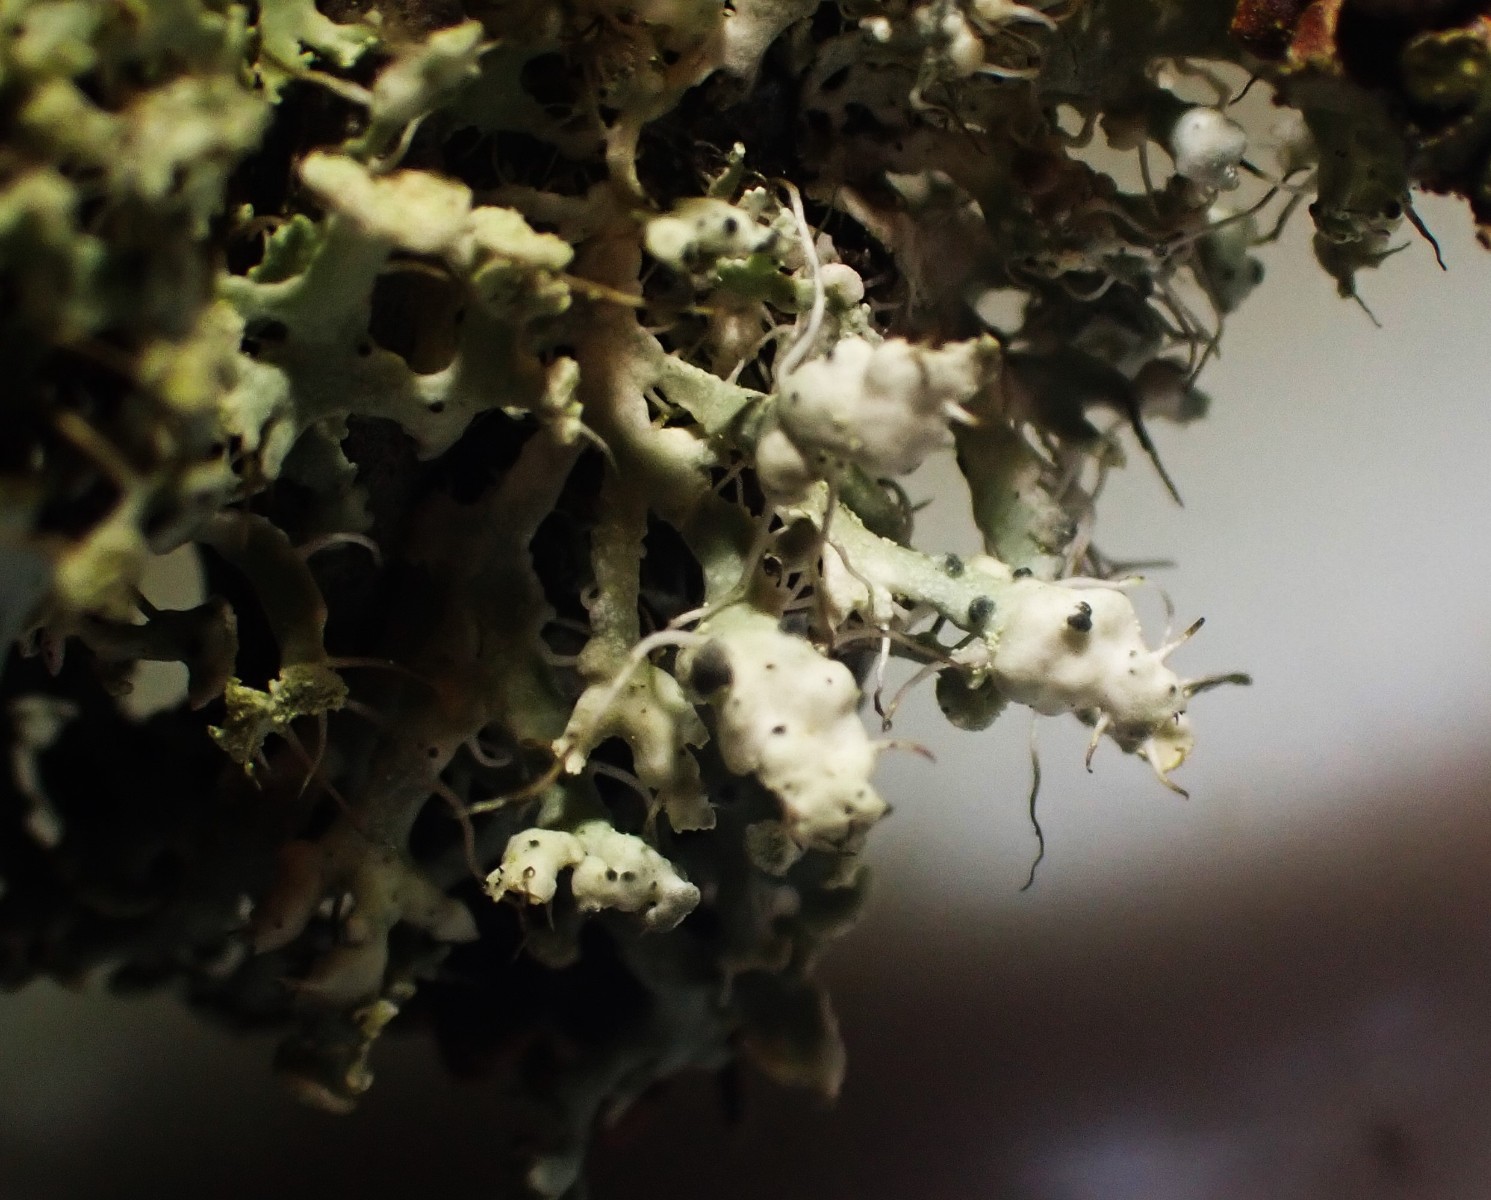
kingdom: Fungi
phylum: Ascomycota
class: Lecanoromycetes
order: Caliciales
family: Physciaceae
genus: Physcia
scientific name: Physcia adscendens
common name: hætte-rosetlav
